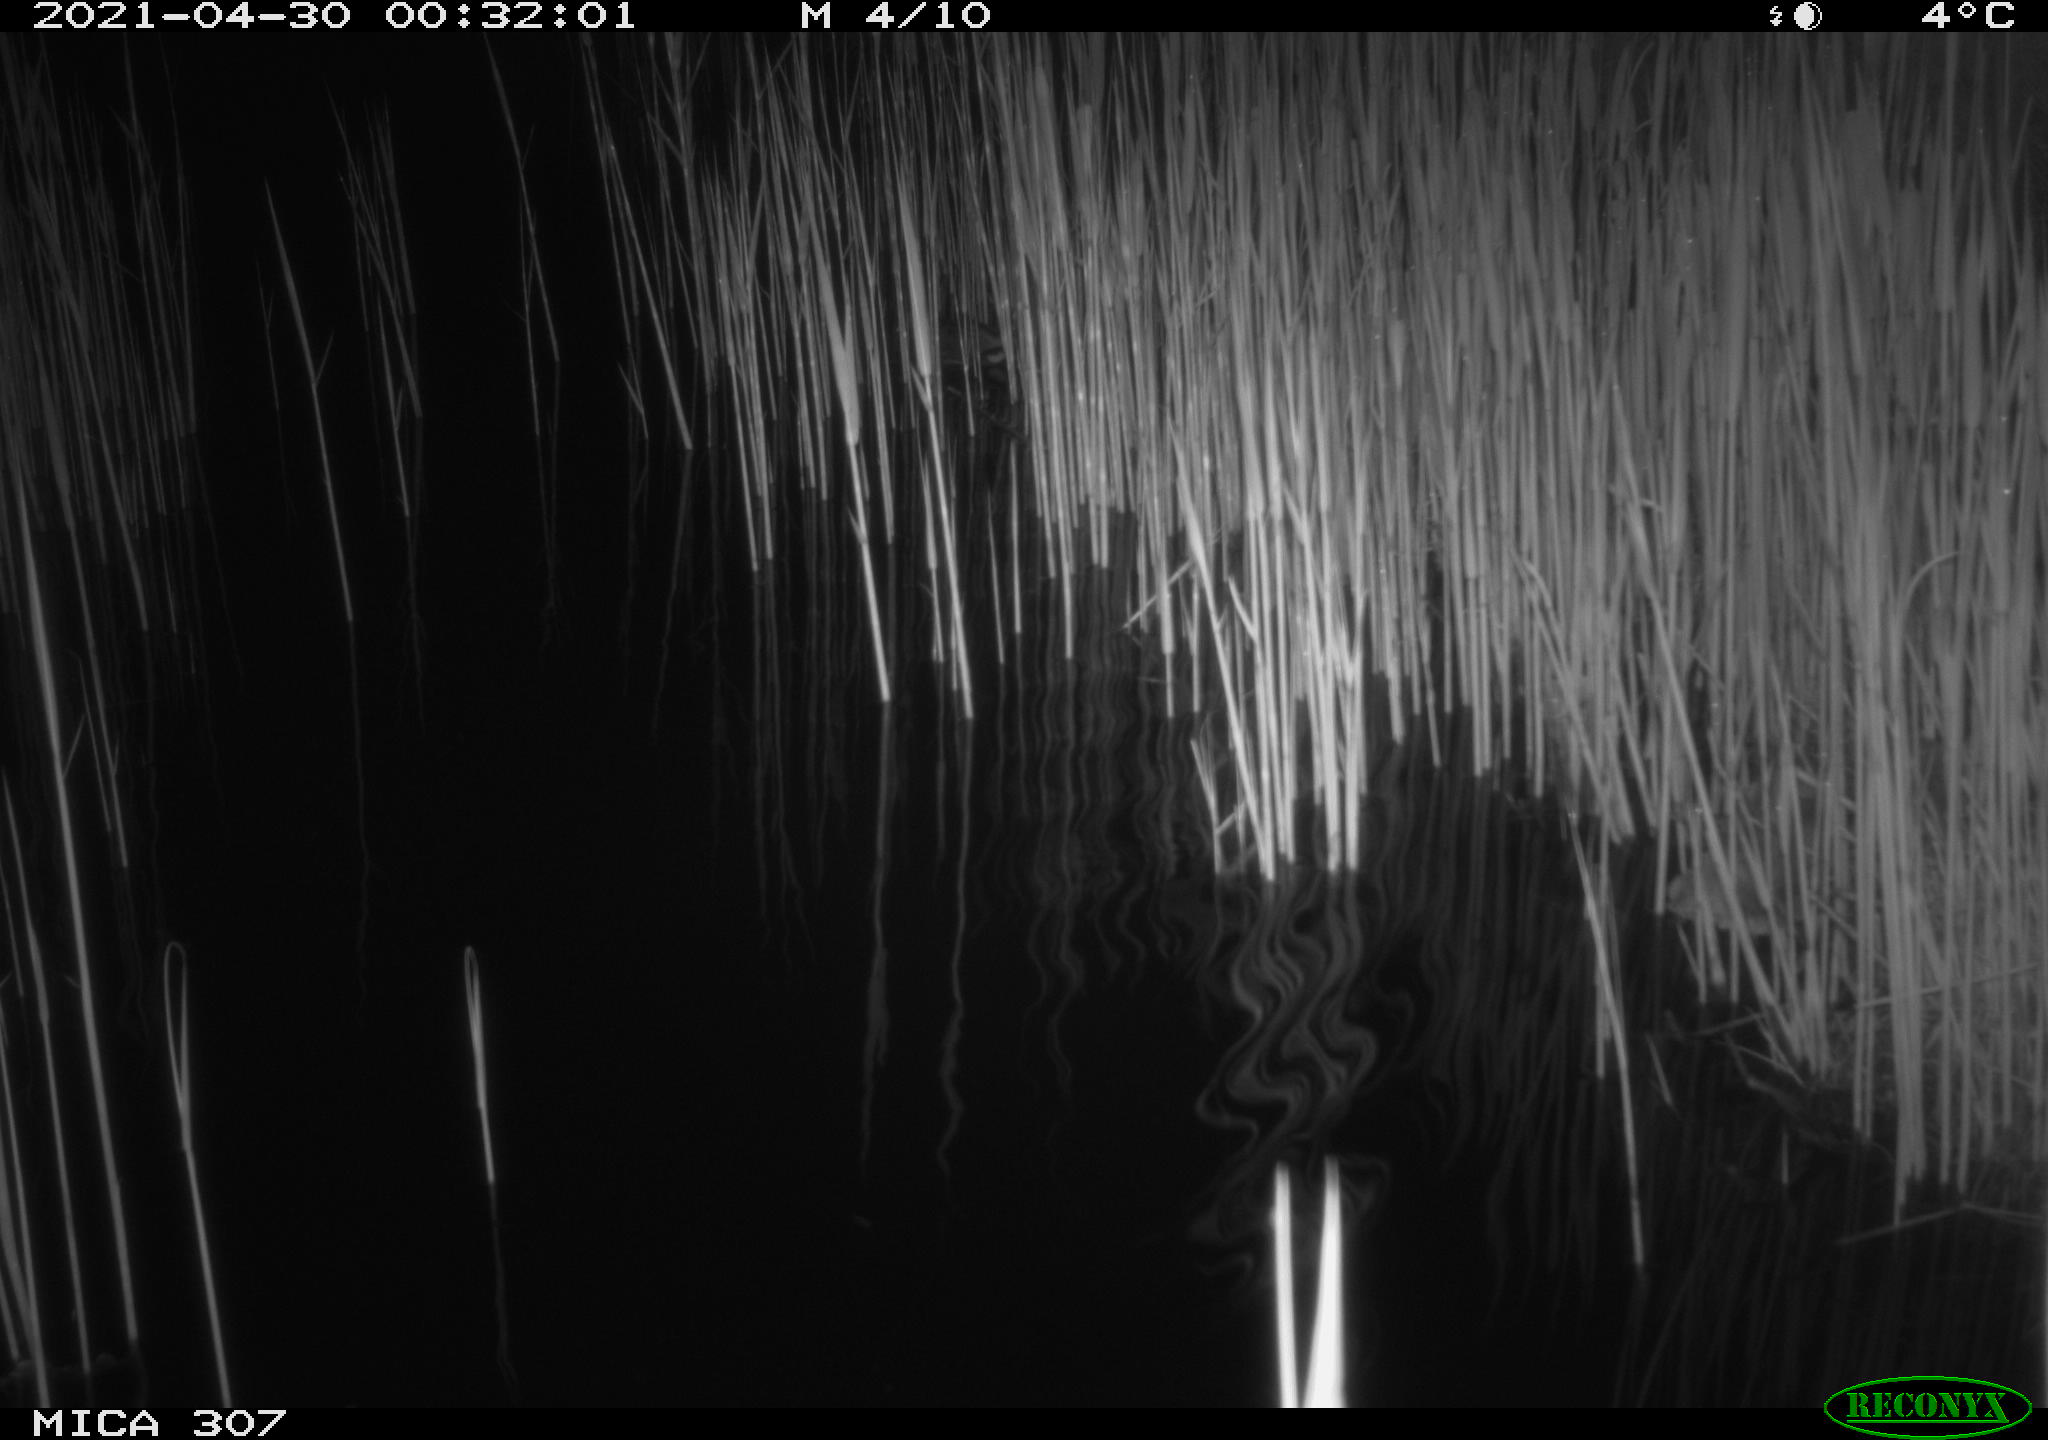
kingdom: Animalia
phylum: Chordata
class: Mammalia
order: Rodentia
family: Cricetidae
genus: Ondatra
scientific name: Ondatra zibethicus
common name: Muskrat
